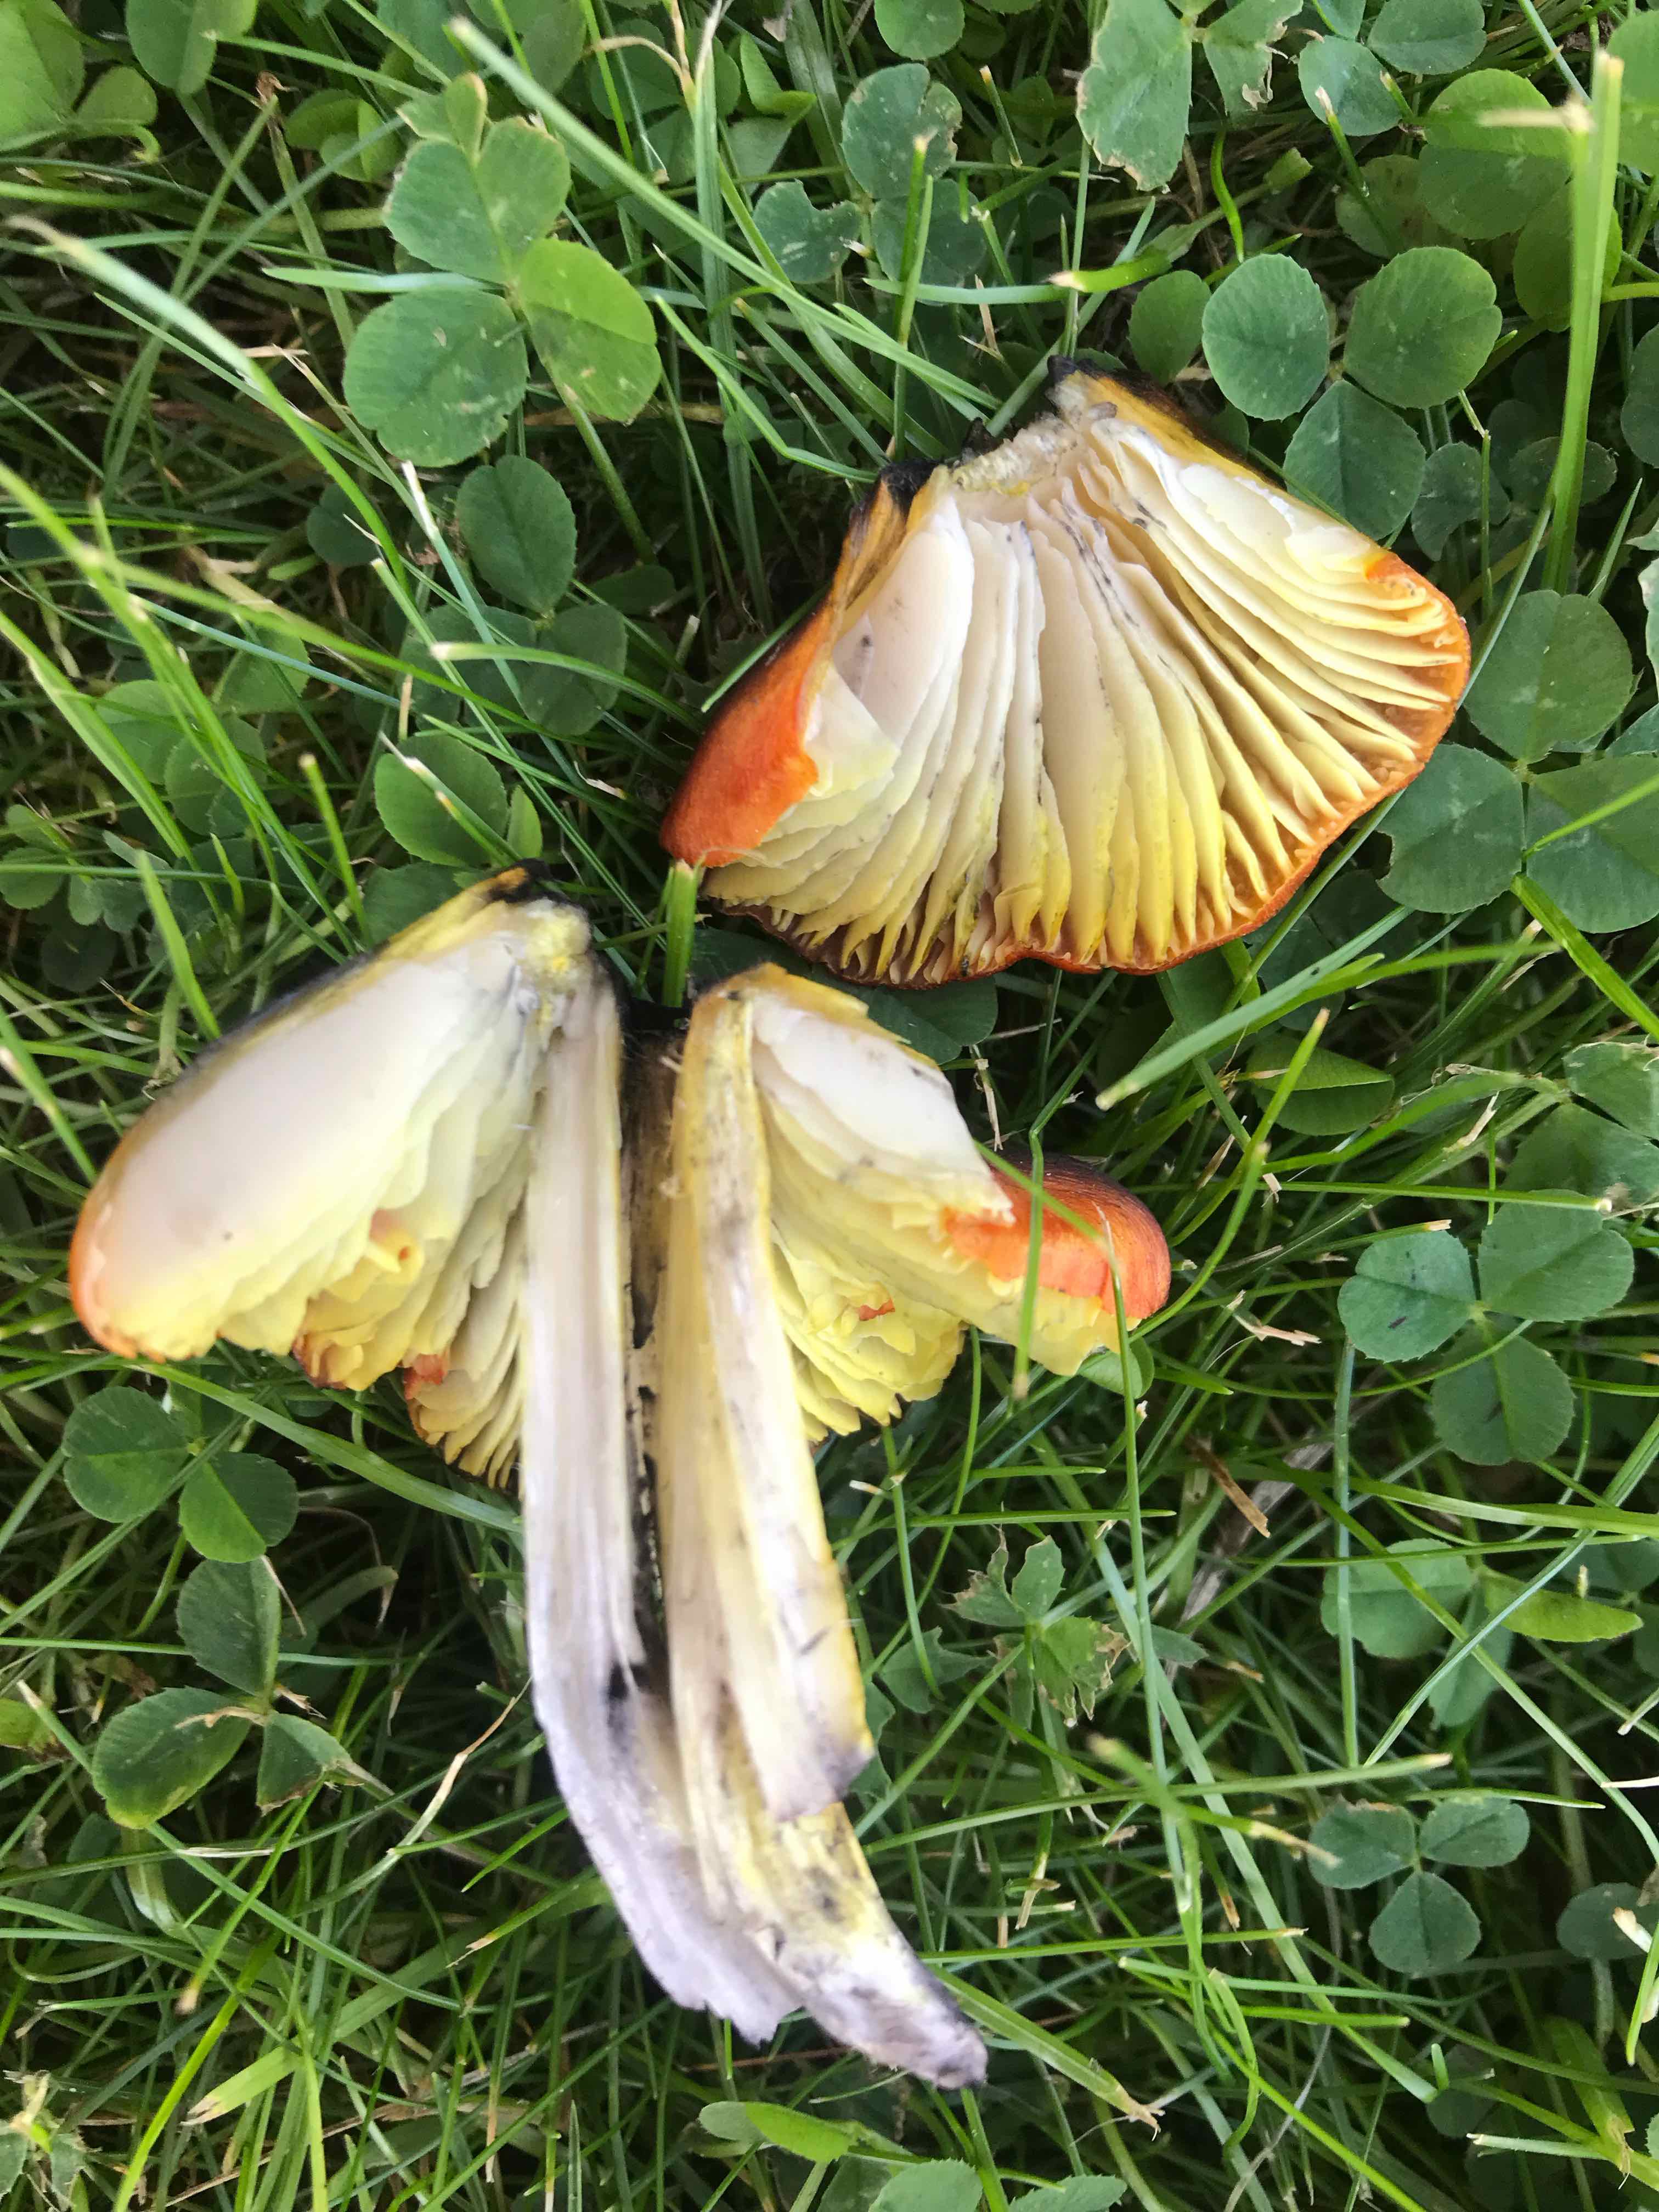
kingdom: Fungi
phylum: Basidiomycota
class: Agaricomycetes
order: Agaricales
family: Hygrophoraceae
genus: Hygrocybe
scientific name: Hygrocybe conica
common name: kegle-vokshat
